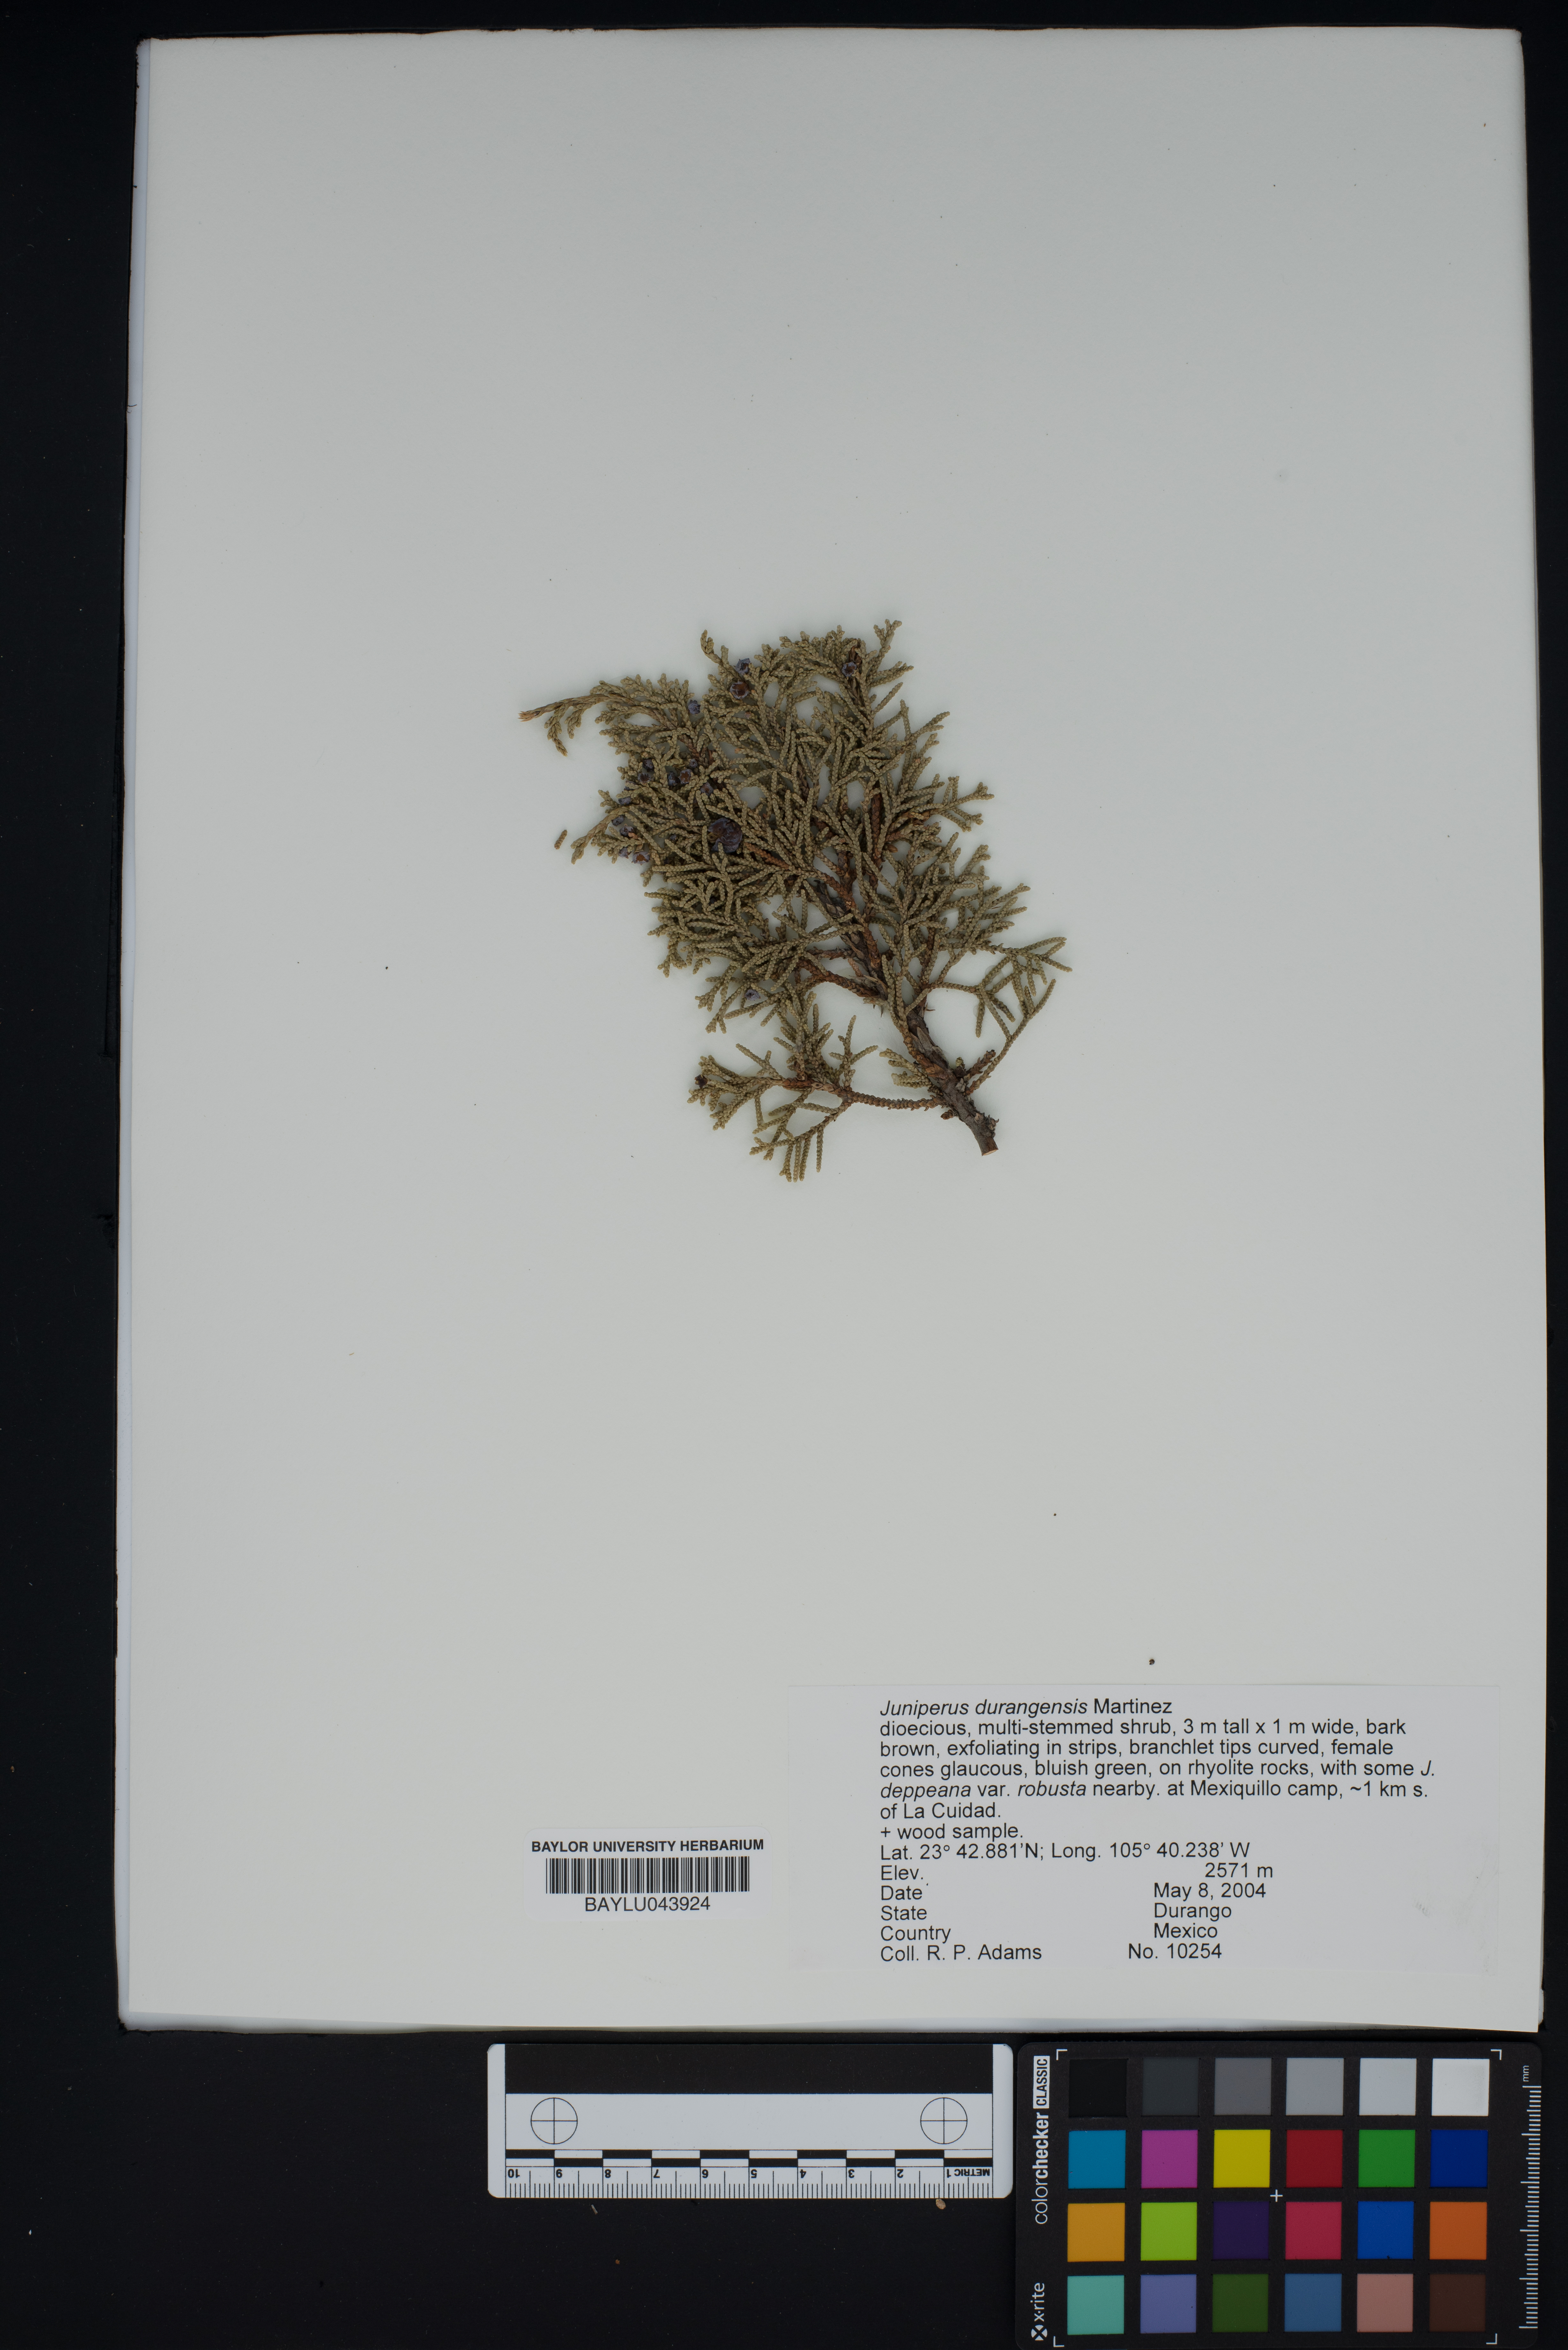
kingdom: Plantae
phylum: Tracheophyta
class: Pinopsida
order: Pinales
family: Cupressaceae
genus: Juniperus
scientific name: Juniperus durangensis
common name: Durango juniper
